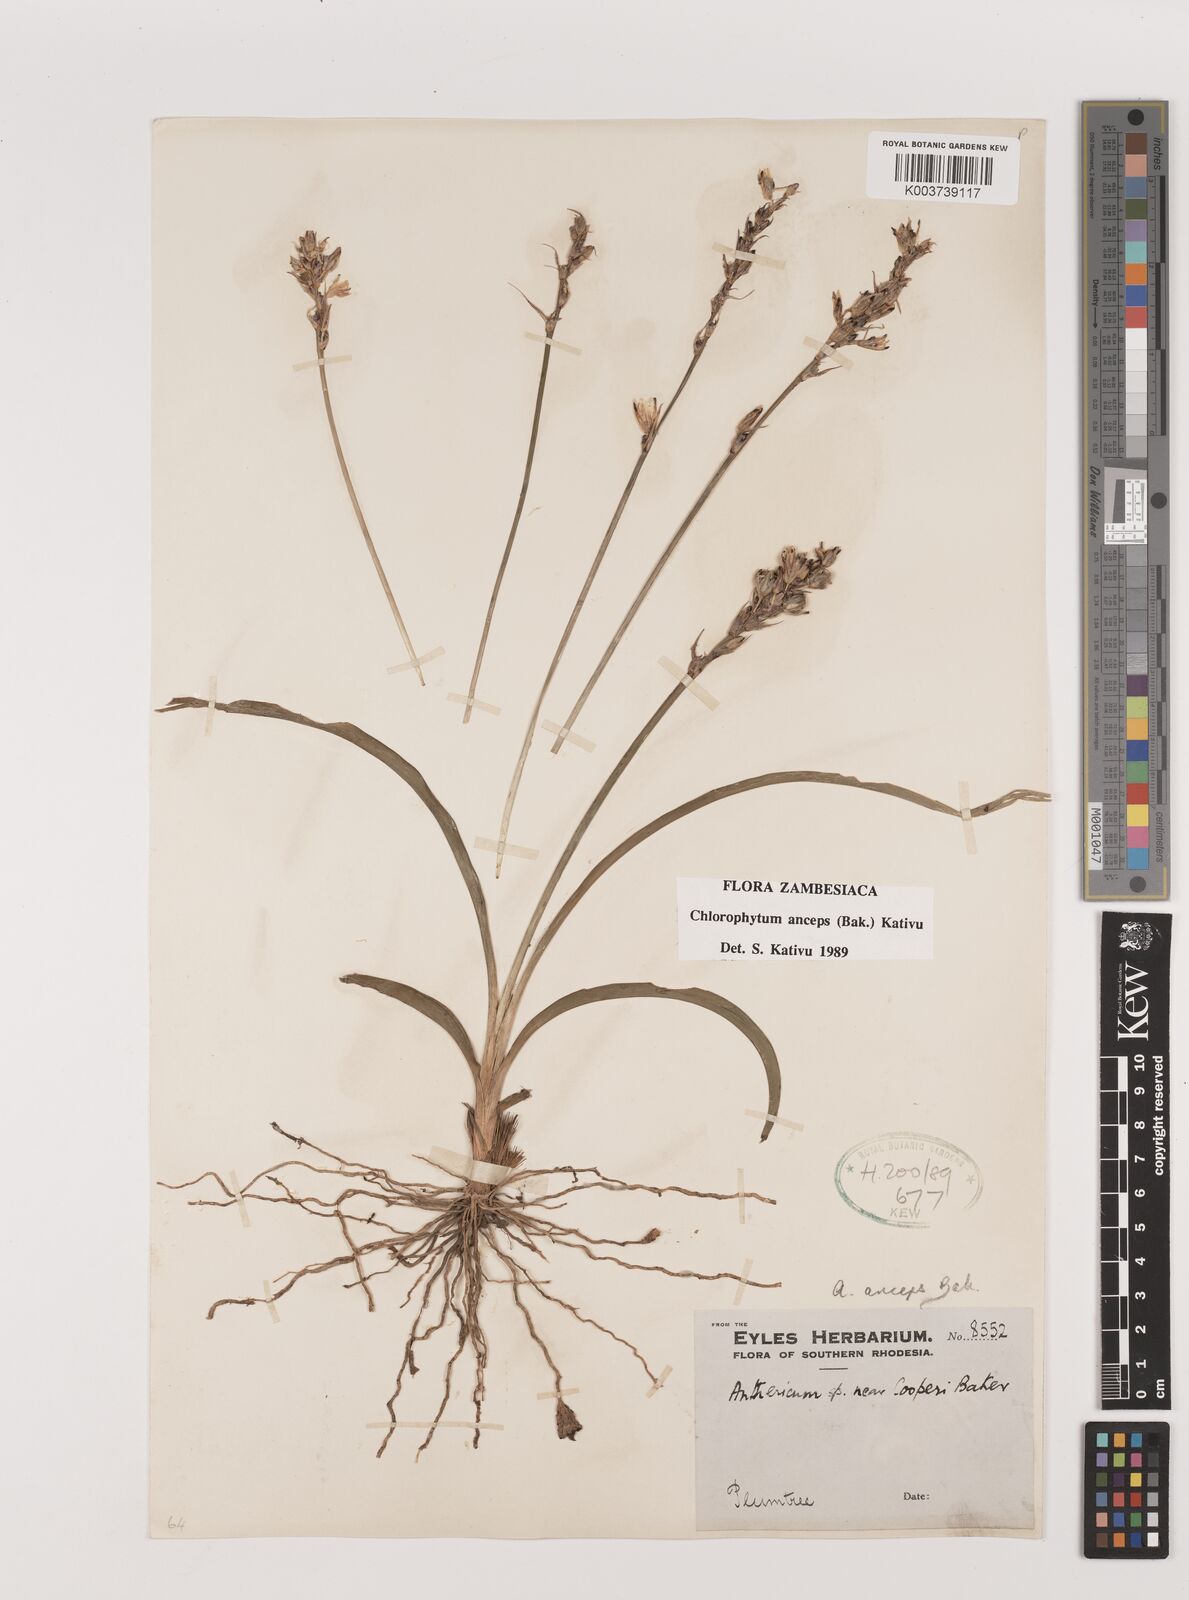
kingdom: Plantae
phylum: Tracheophyta
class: Liliopsida
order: Asparagales
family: Asparagaceae
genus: Chlorophytum
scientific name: Chlorophytum anceps
